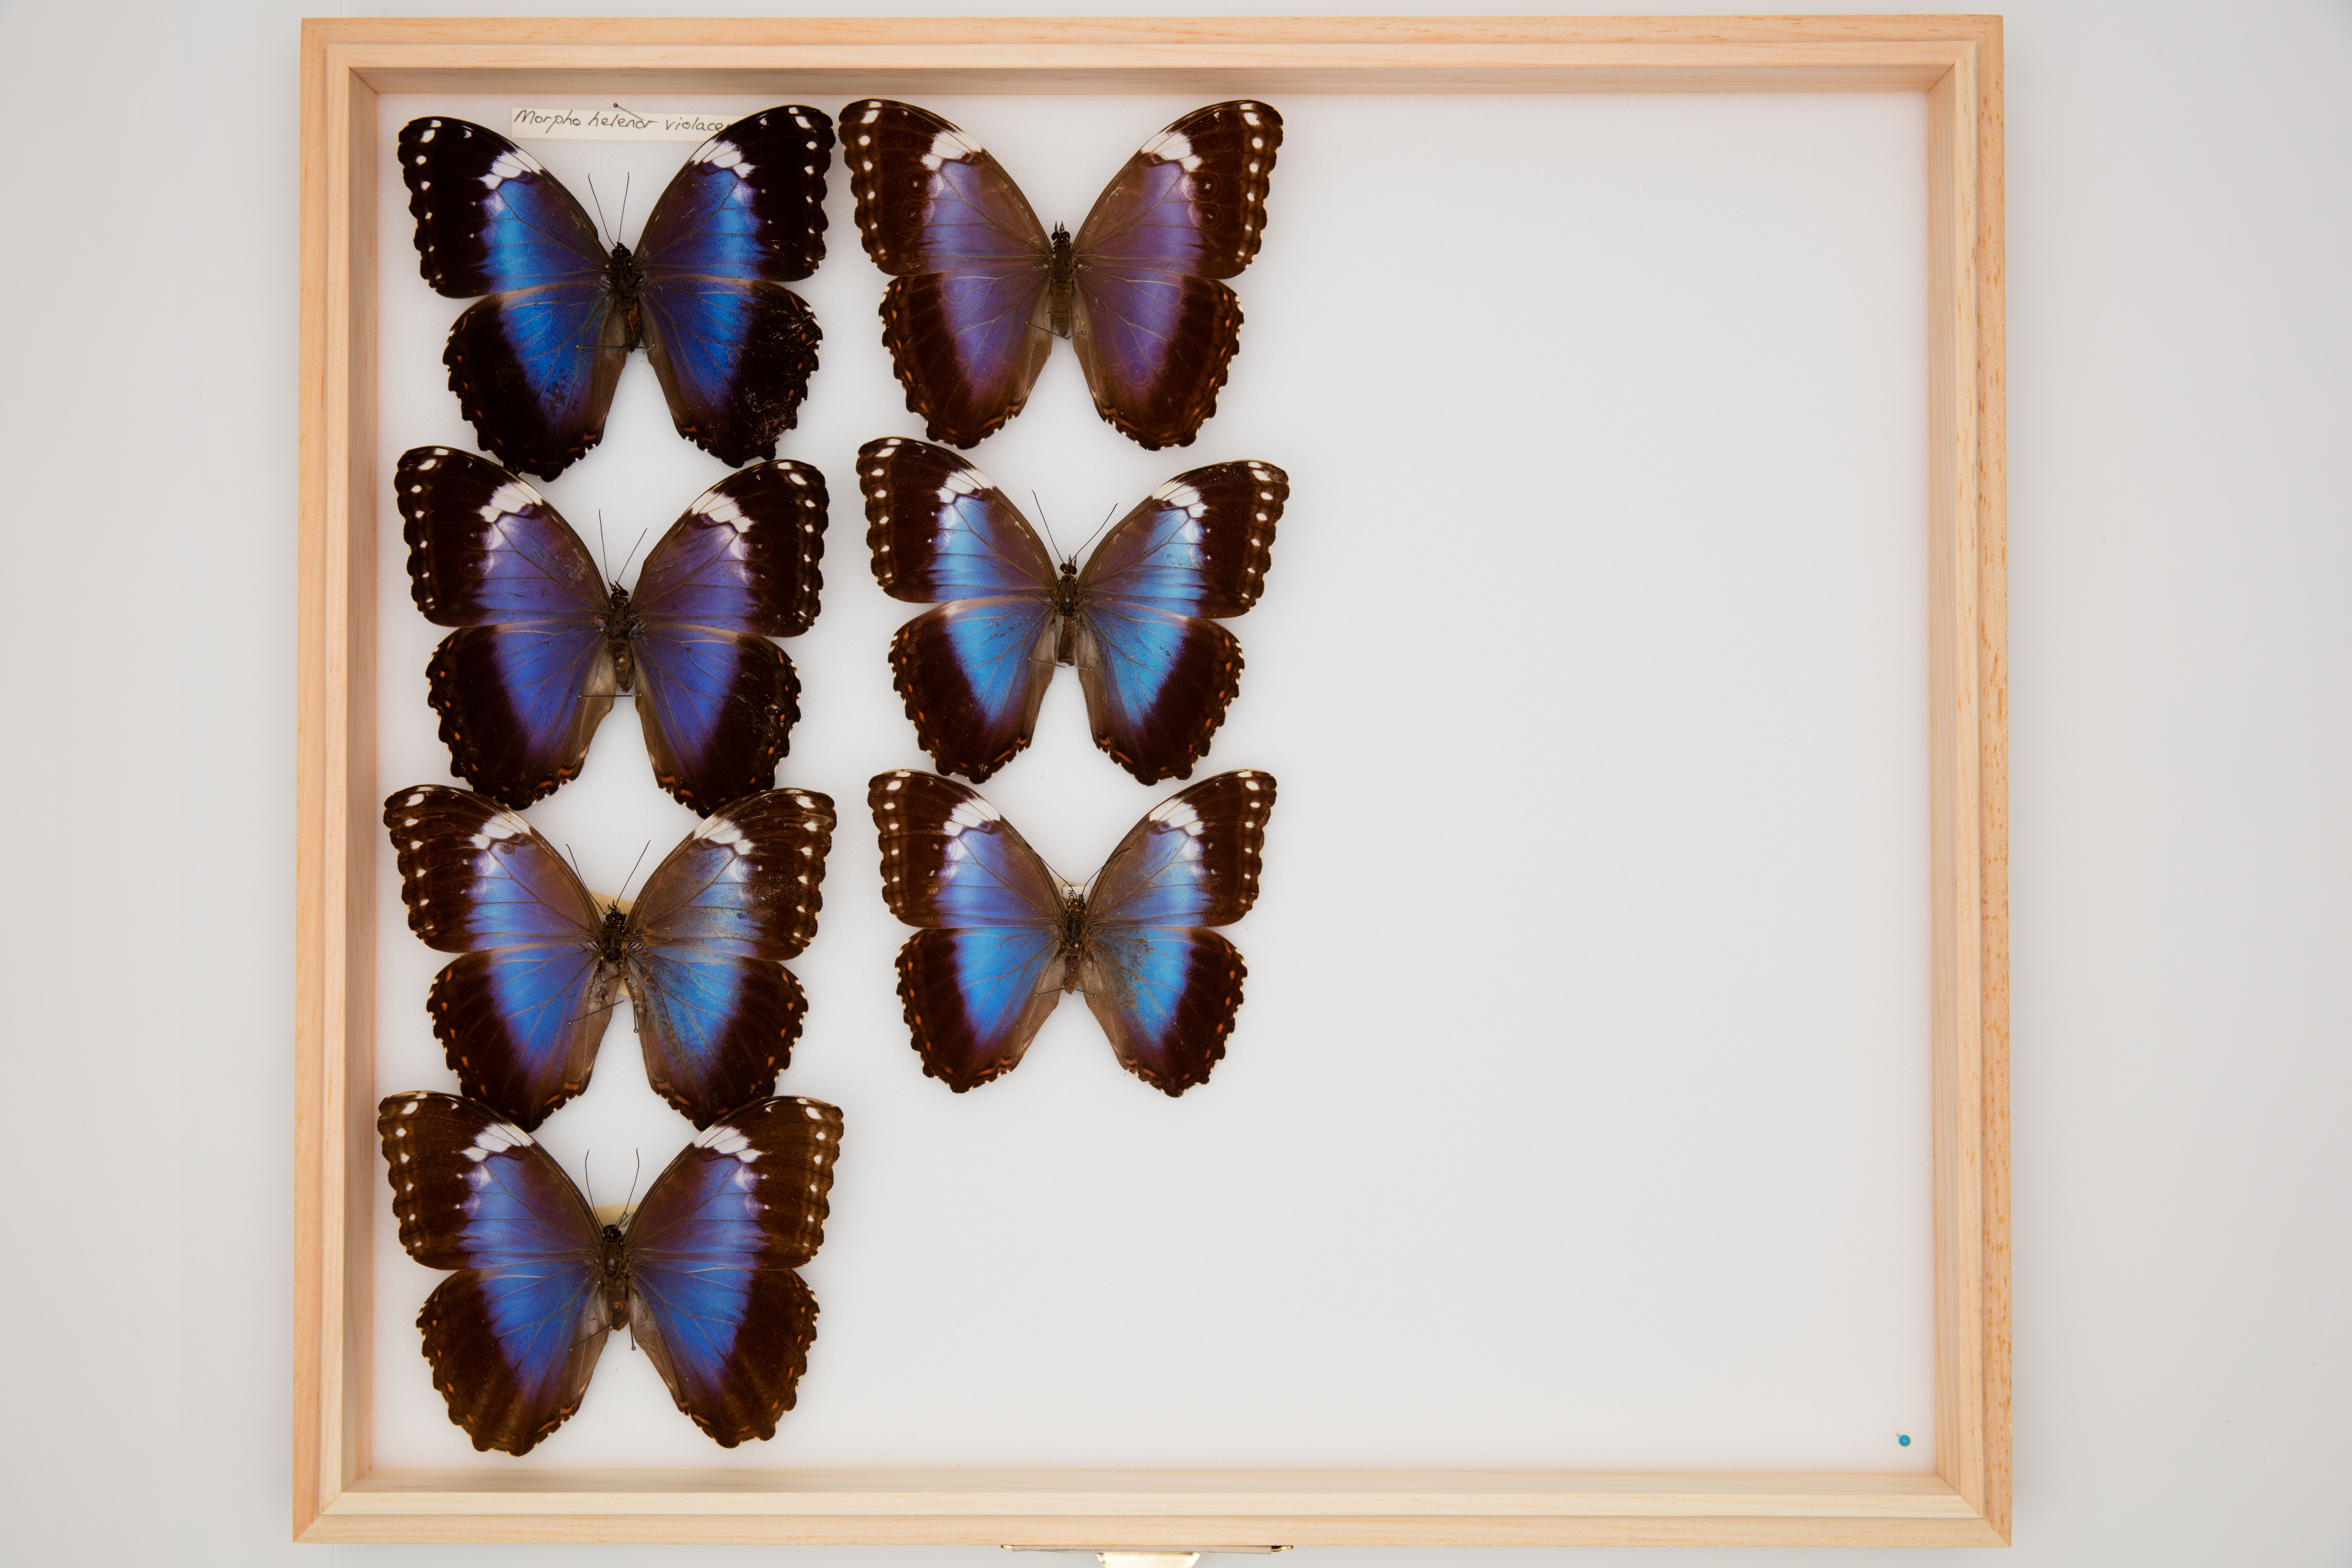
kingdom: Animalia
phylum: Arthropoda
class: Insecta
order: Lepidoptera
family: Nymphalidae
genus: Morpho
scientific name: Morpho helenor
